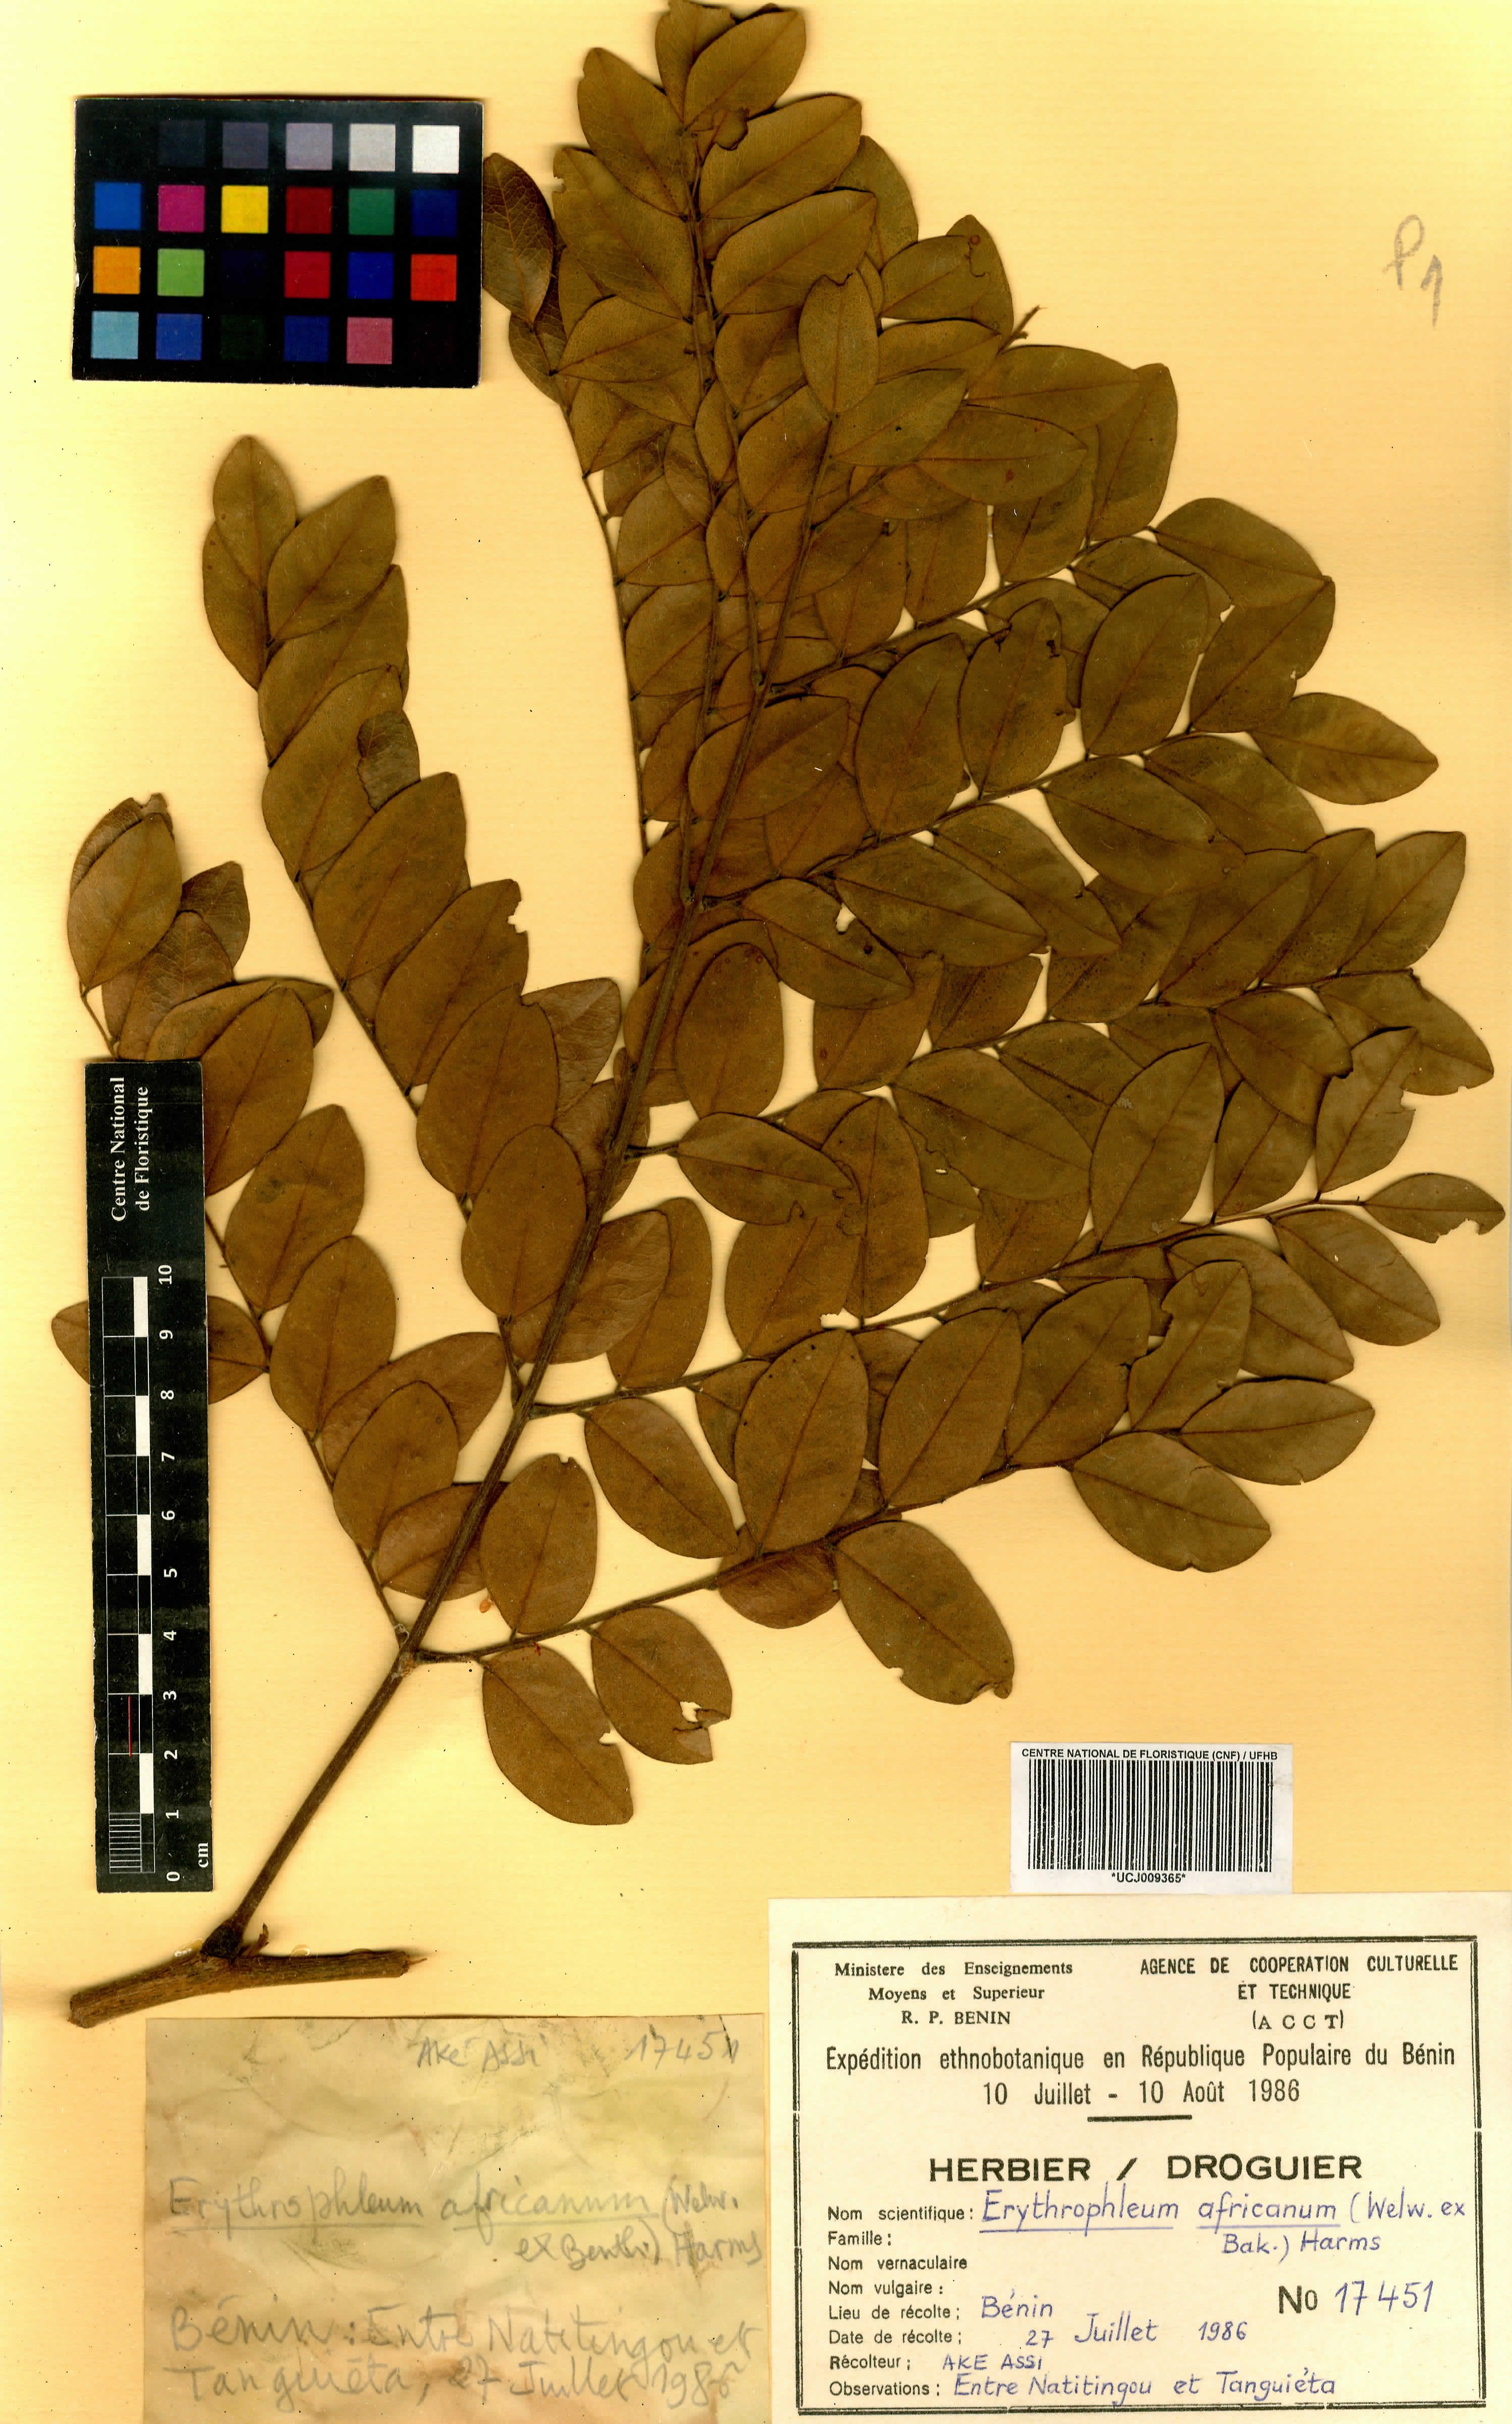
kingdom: Plantae
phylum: Tracheophyta
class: Magnoliopsida
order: Fabales
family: Fabaceae
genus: Erythrophleum
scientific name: Erythrophleum africanum
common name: African blackwood
